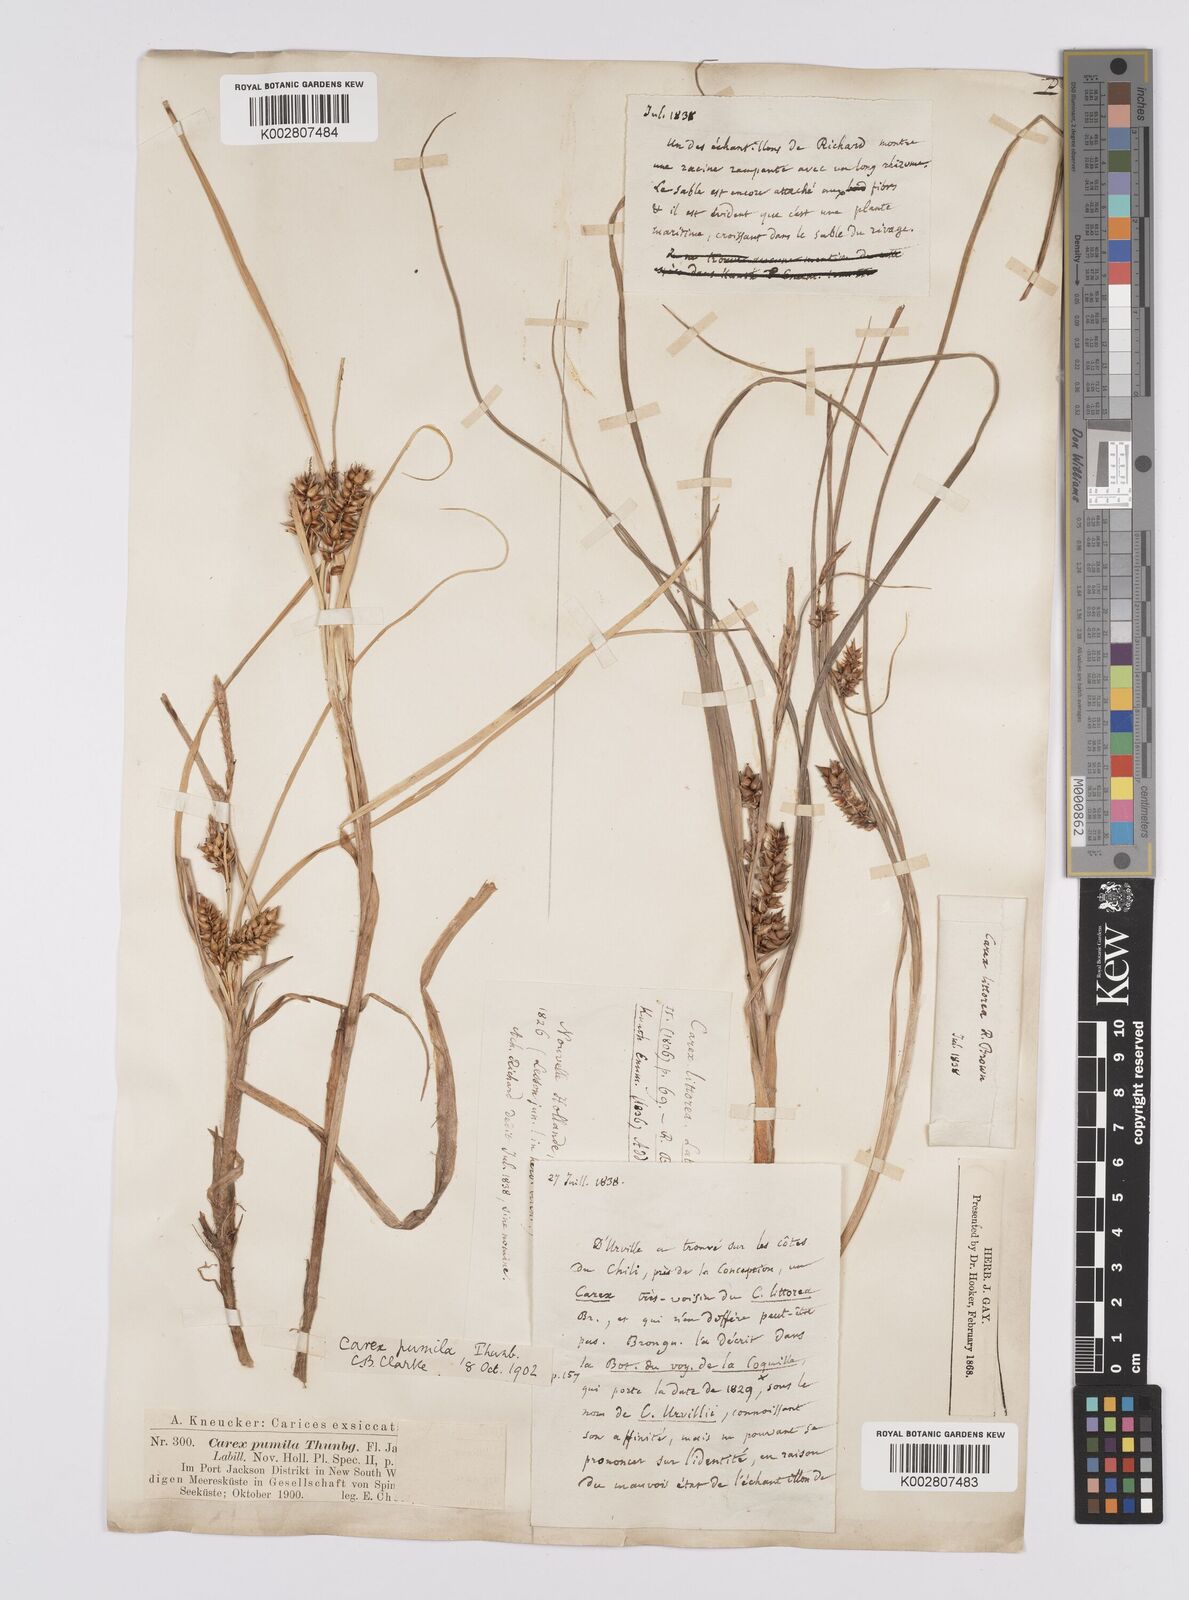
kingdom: Plantae
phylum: Tracheophyta
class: Liliopsida
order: Poales
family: Cyperaceae
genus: Carex
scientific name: Carex pumila
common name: Dwarf sedge
